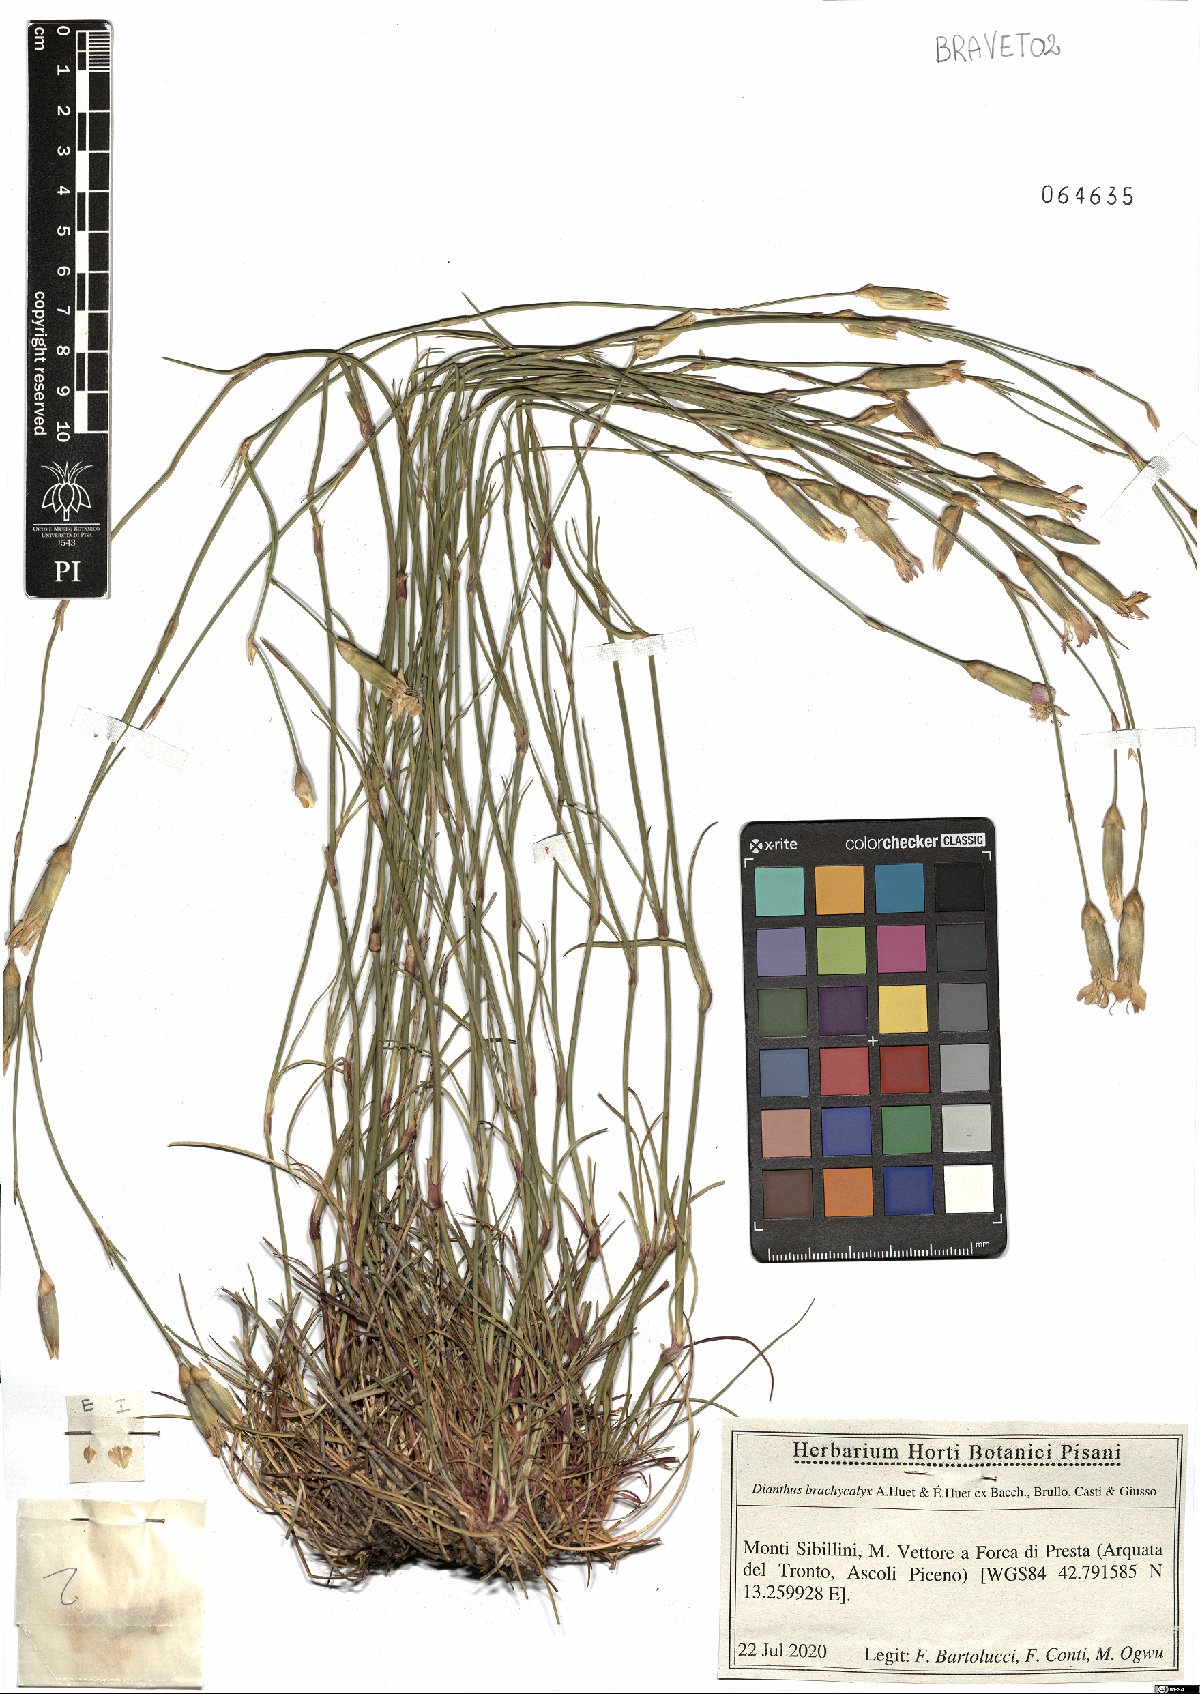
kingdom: Plantae
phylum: Tracheophyta
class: Magnoliopsida
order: Caryophyllales
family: Caryophyllaceae
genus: Dianthus
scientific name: Dianthus brachycalyx
